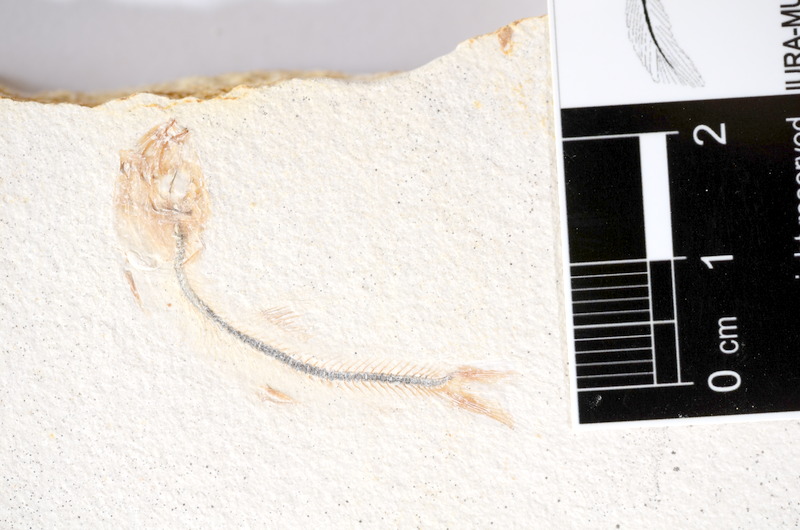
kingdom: Animalia
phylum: Chordata
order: Salmoniformes
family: Orthogonikleithridae
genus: Orthogonikleithrus
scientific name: Orthogonikleithrus hoelli
